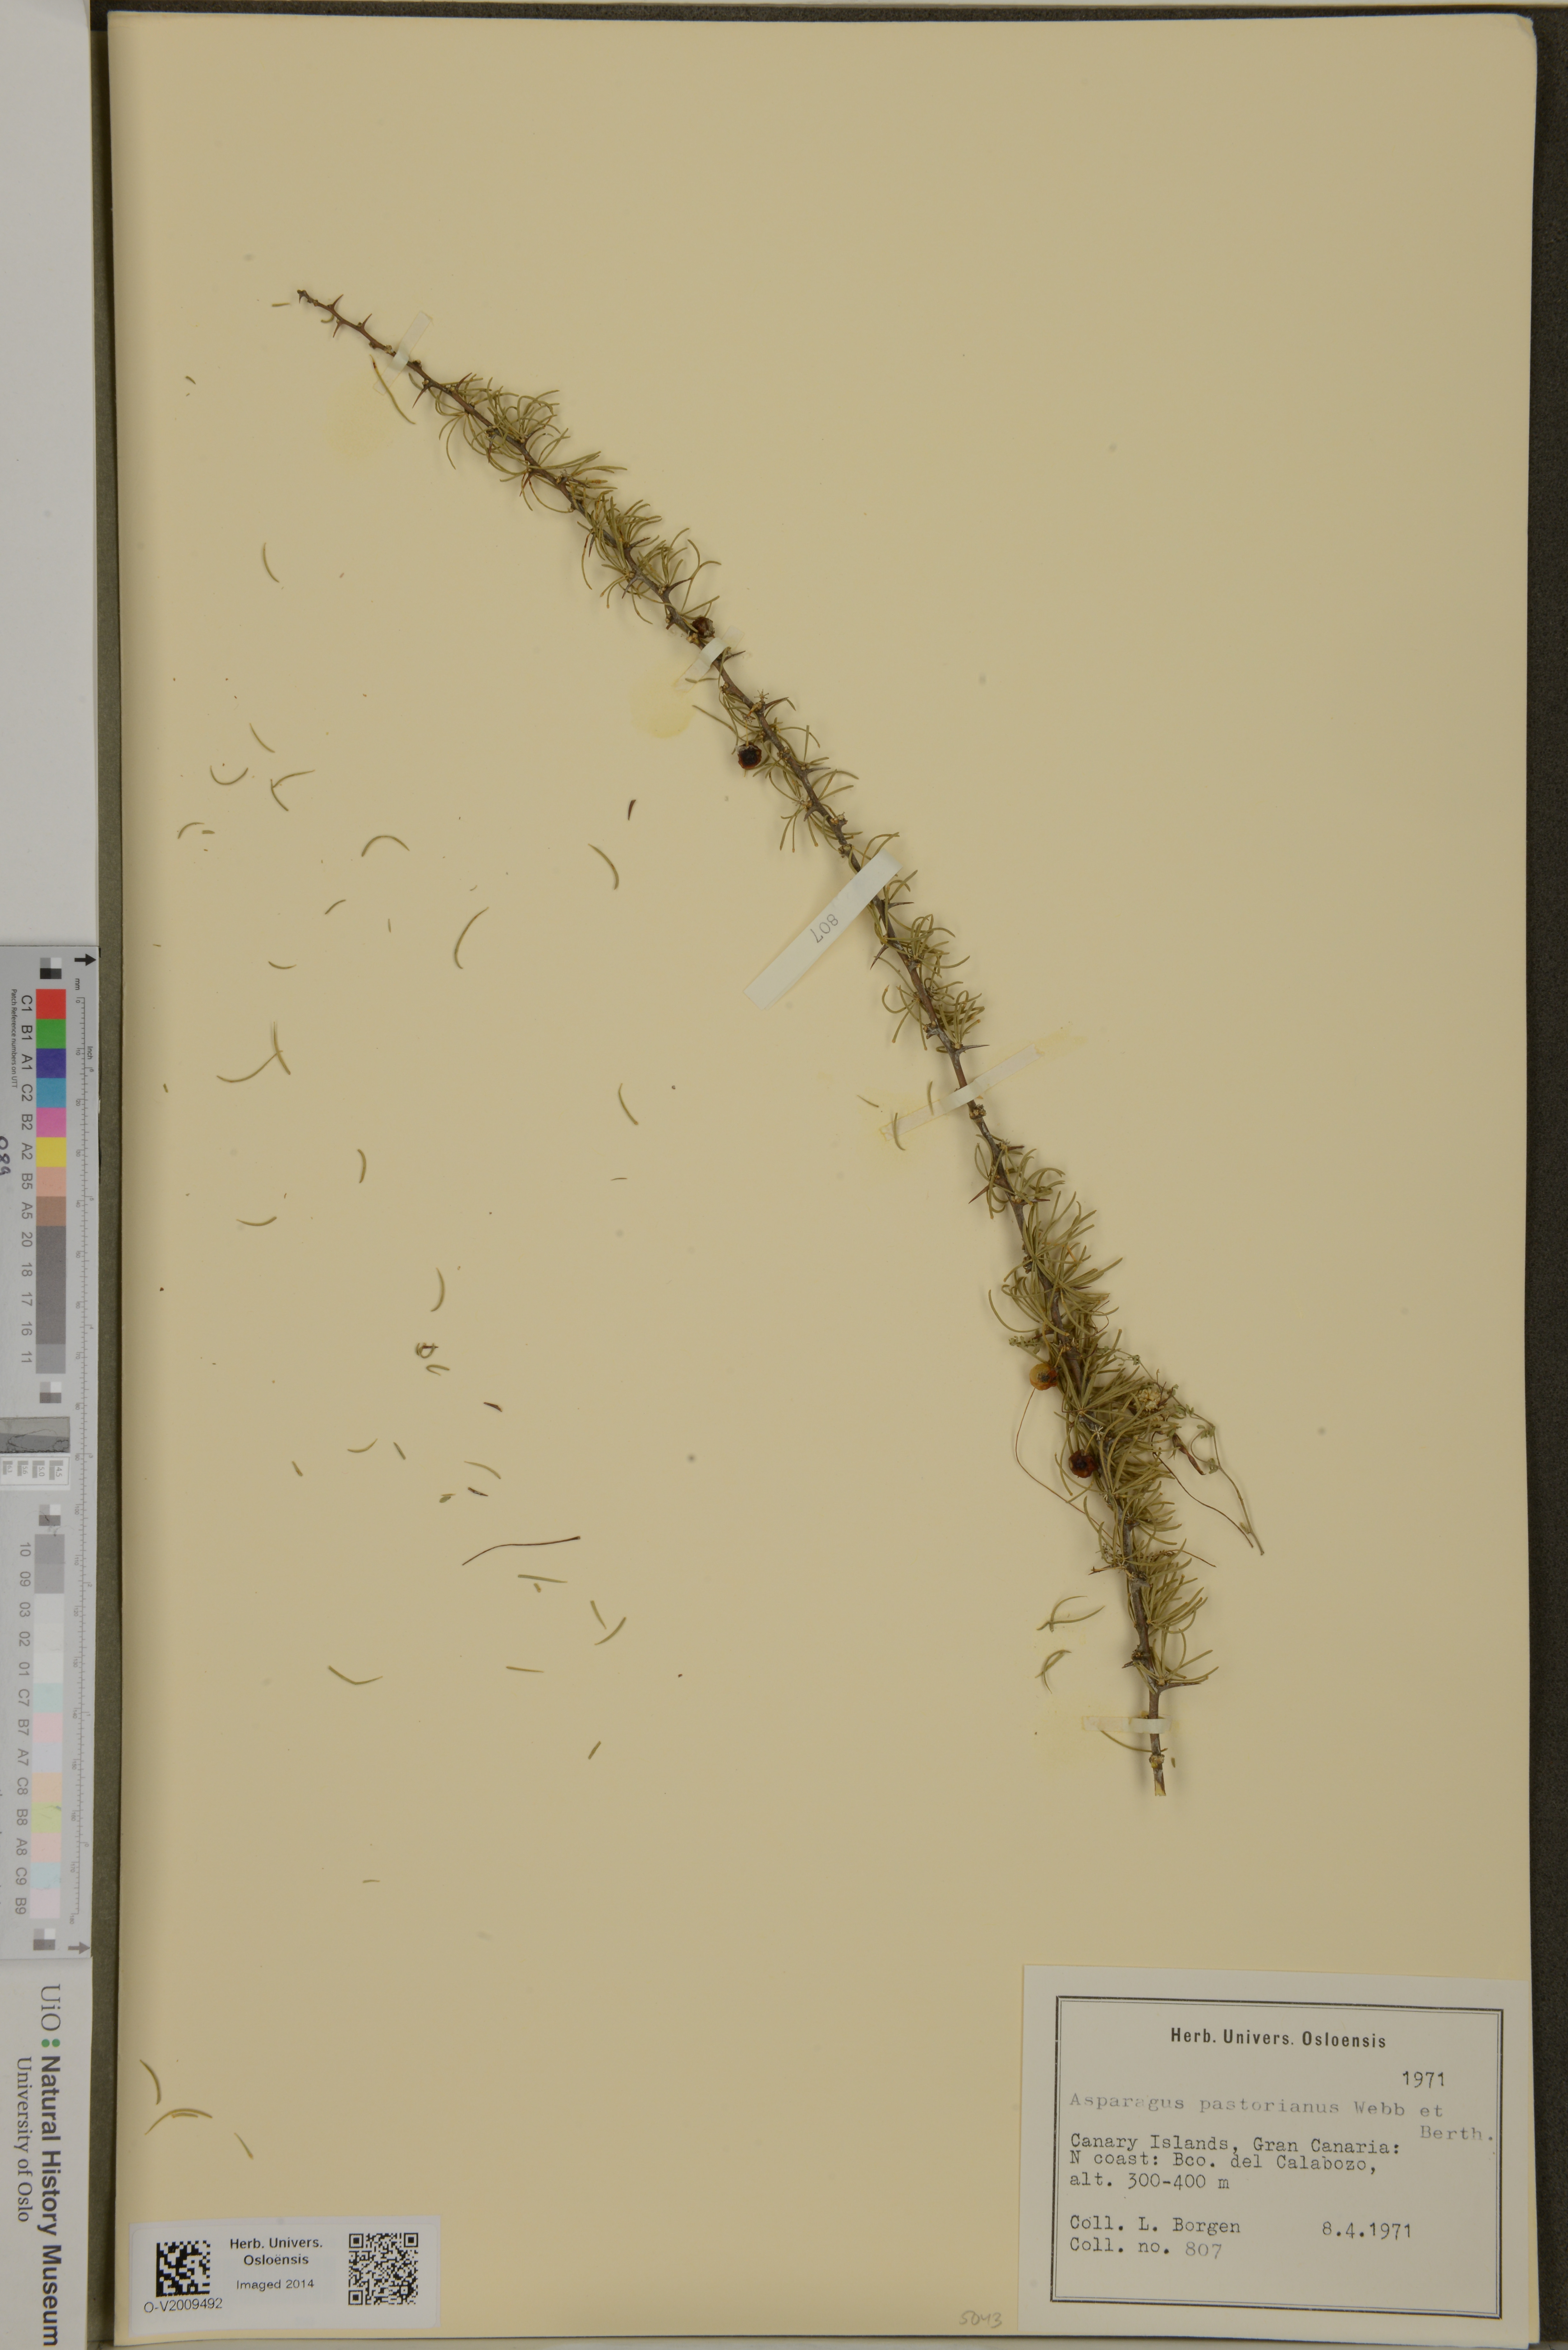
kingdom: Plantae
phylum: Tracheophyta
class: Liliopsida
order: Asparagales
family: Asparagaceae
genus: Asparagus
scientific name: Asparagus pastorianus
